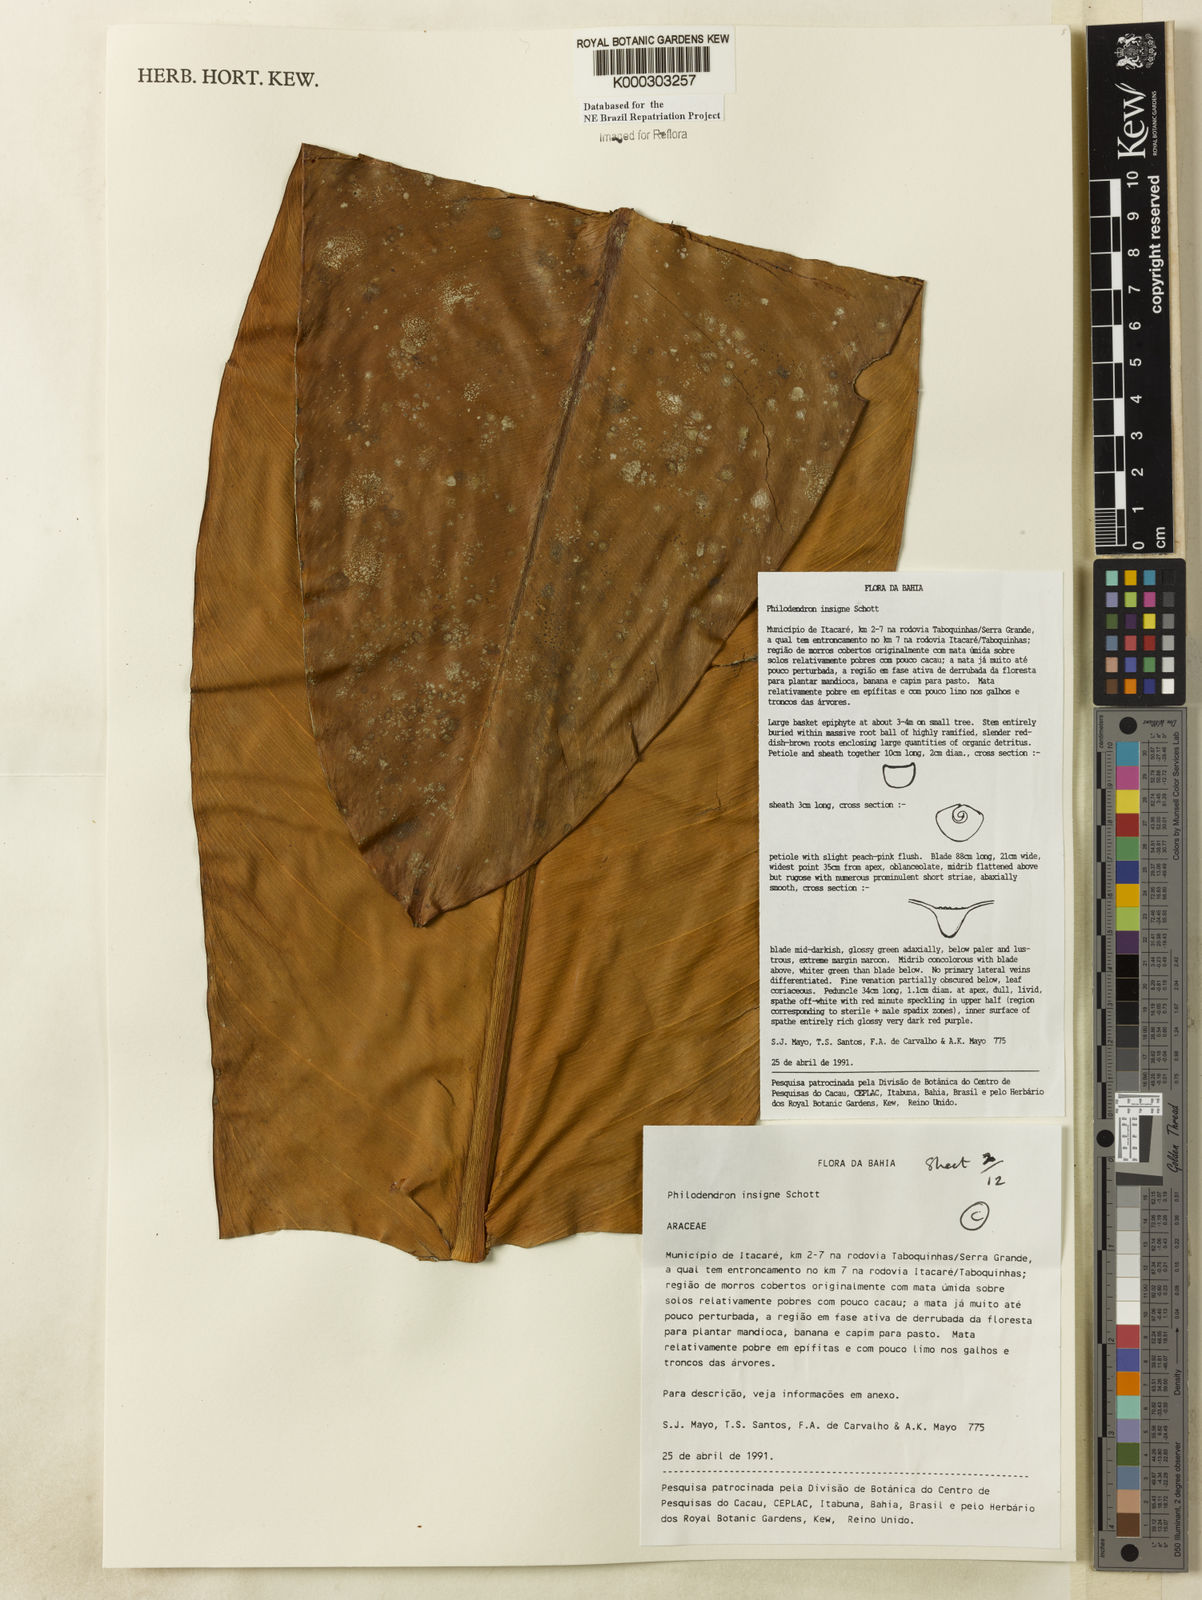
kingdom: Plantae
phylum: Tracheophyta
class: Liliopsida
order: Alismatales
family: Araceae
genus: Philodendron
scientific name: Philodendron insigne
